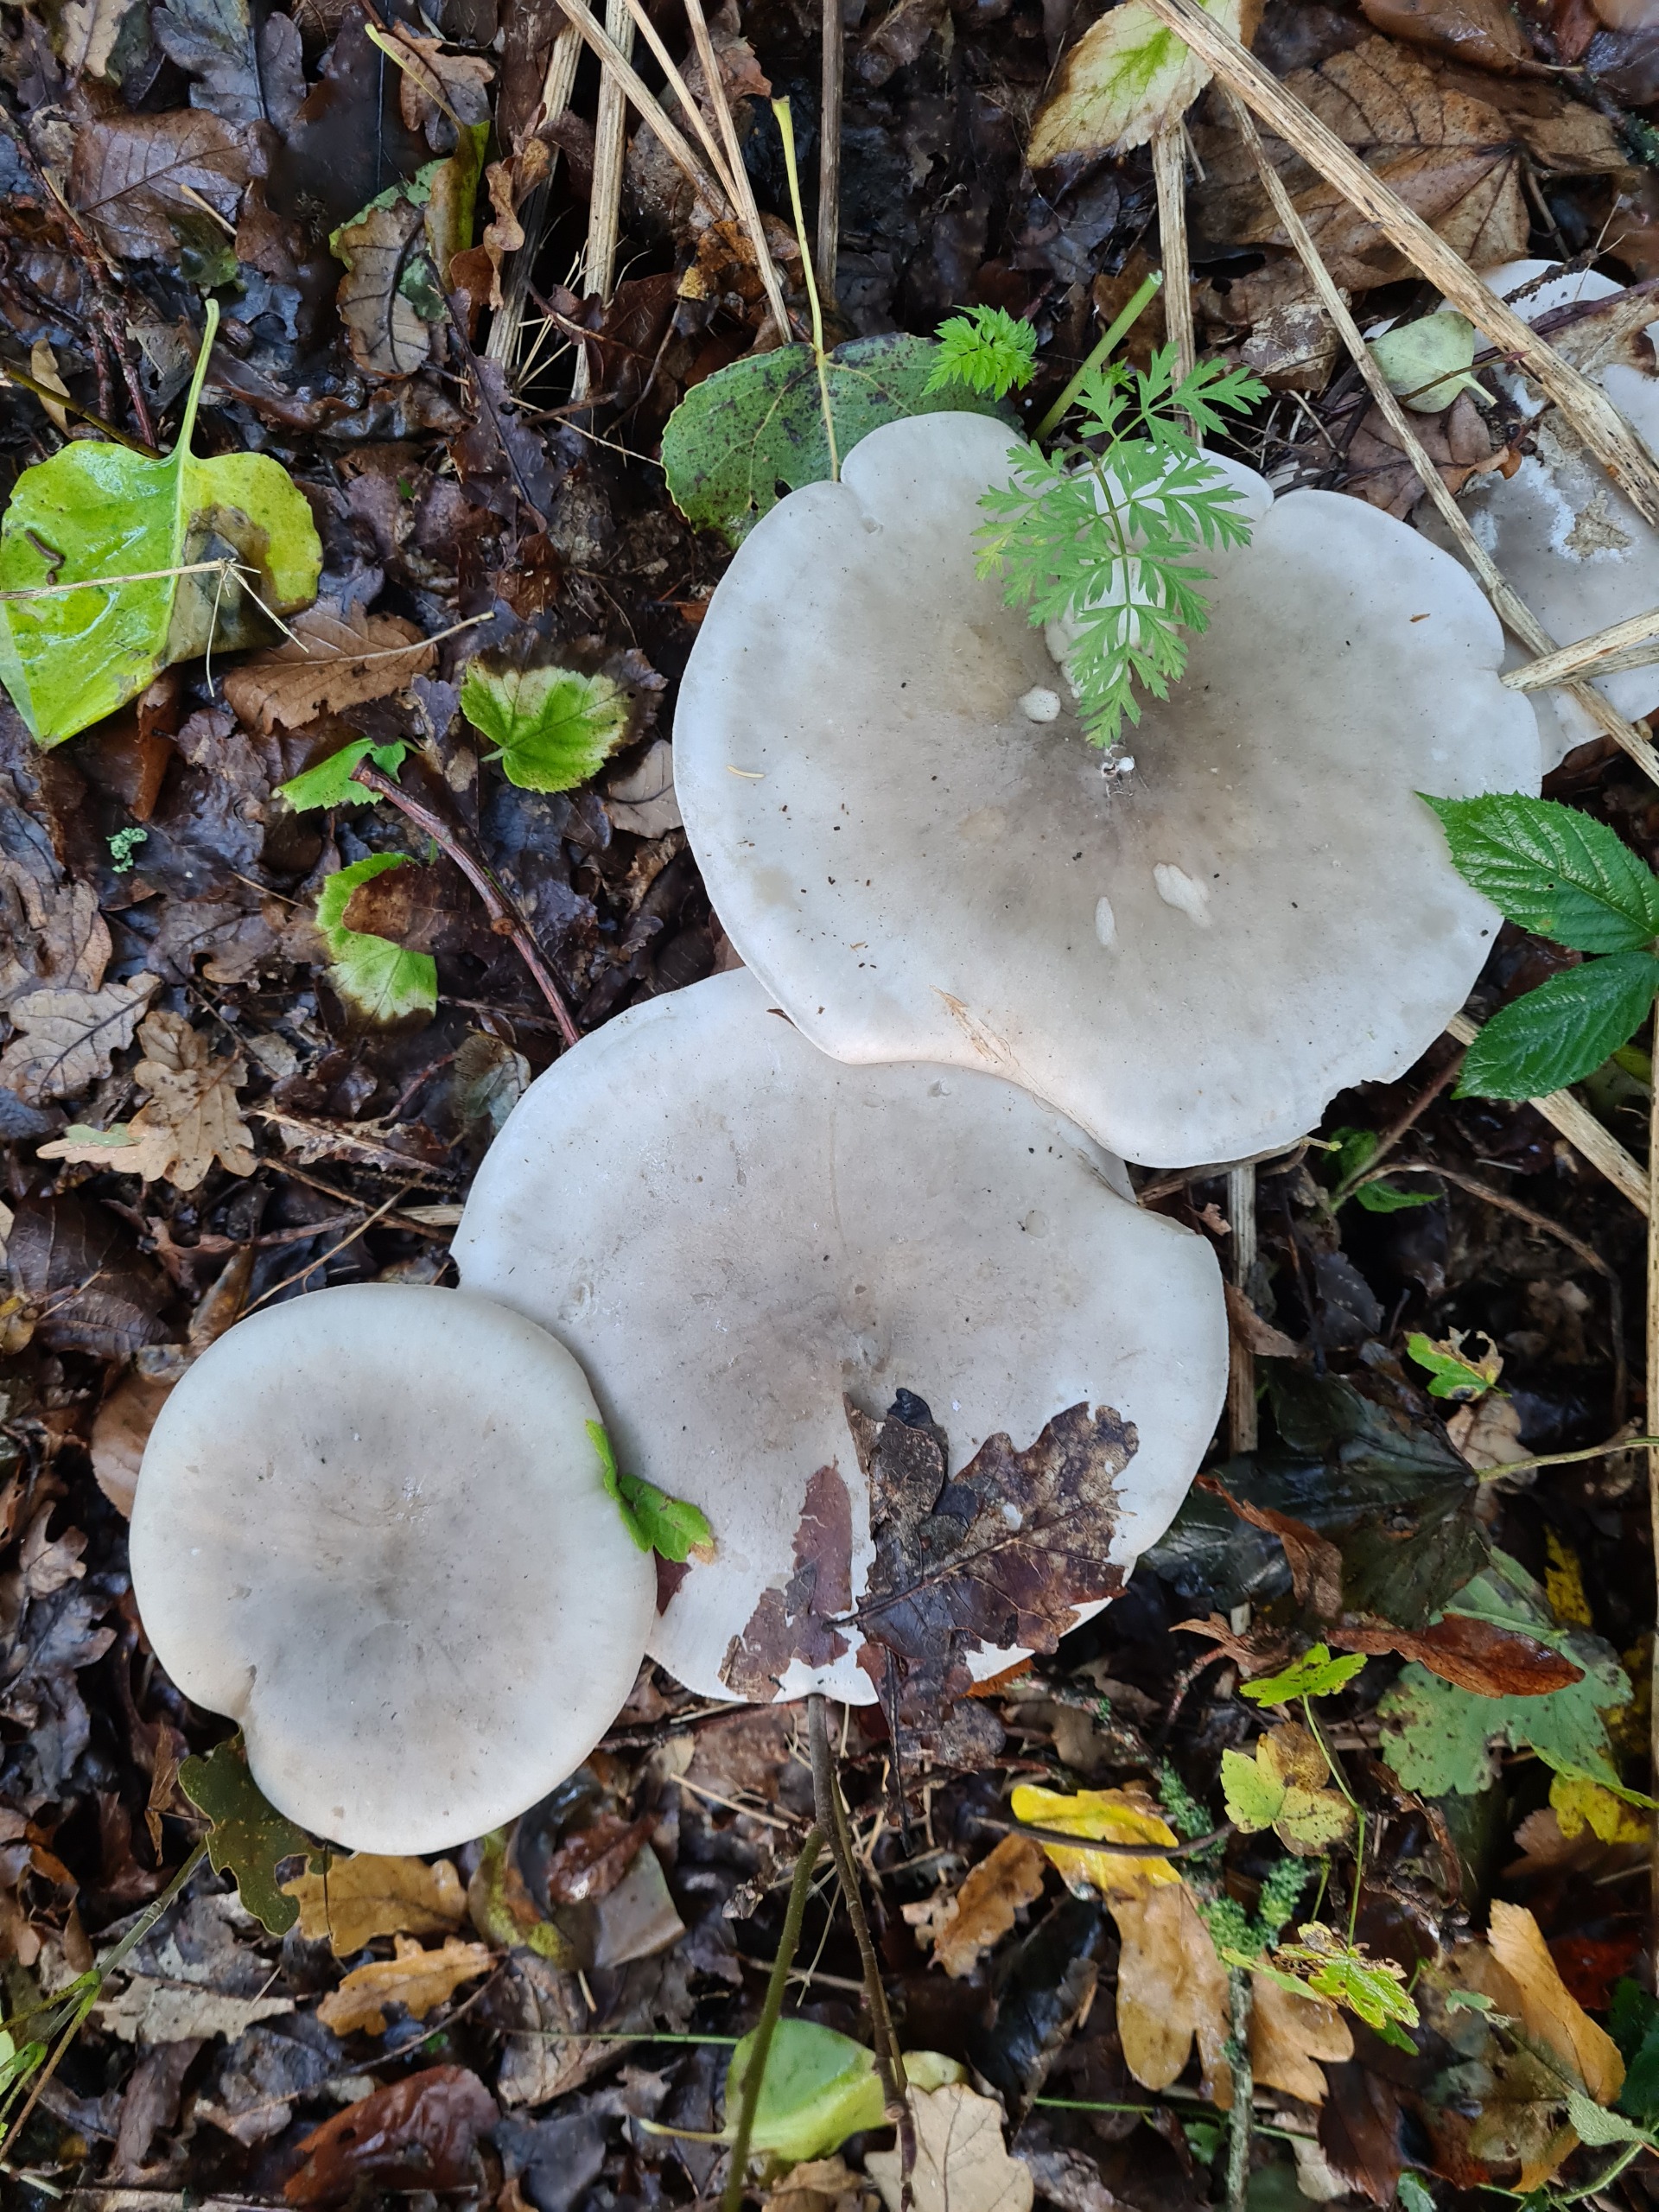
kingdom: Fungi
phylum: Basidiomycota
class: Agaricomycetes
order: Agaricales
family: Tricholomataceae
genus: Clitocybe
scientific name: Clitocybe nebularis
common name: Tåge-tragthat
